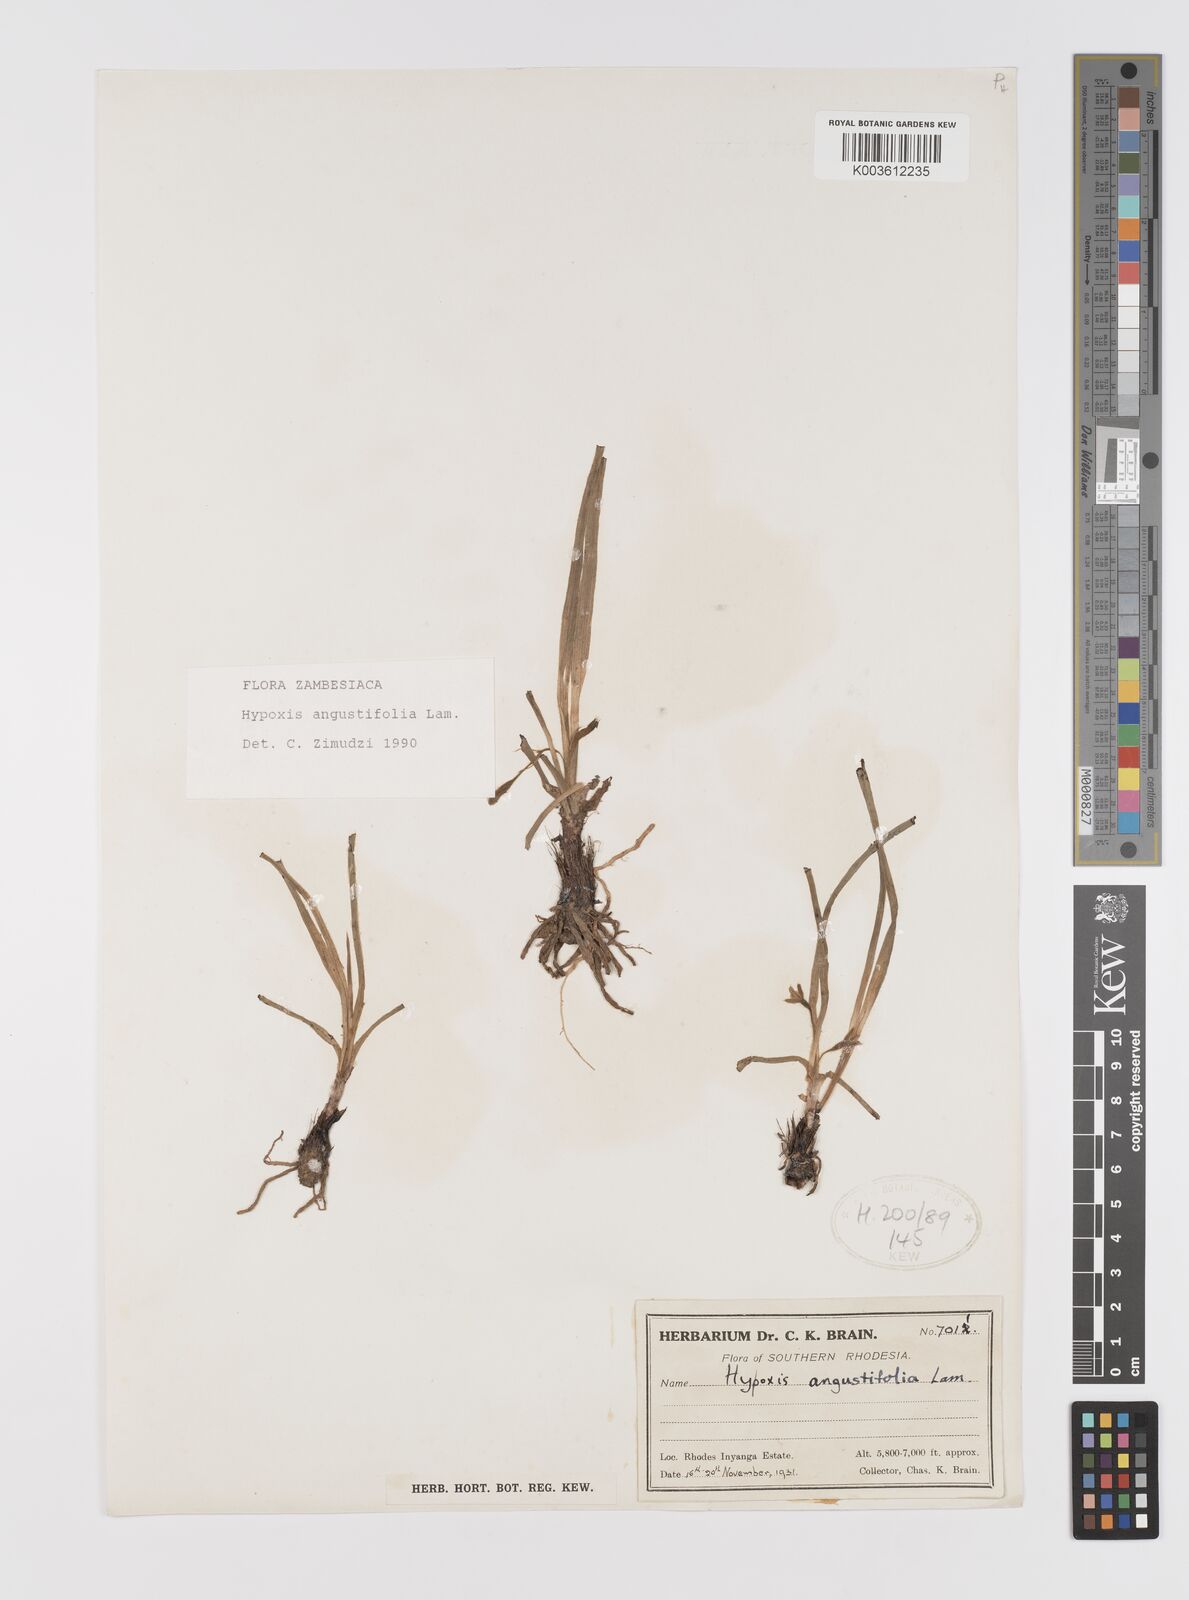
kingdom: Plantae
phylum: Tracheophyta
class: Liliopsida
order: Asparagales
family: Hypoxidaceae
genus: Hypoxis
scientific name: Hypoxis angustifolia
